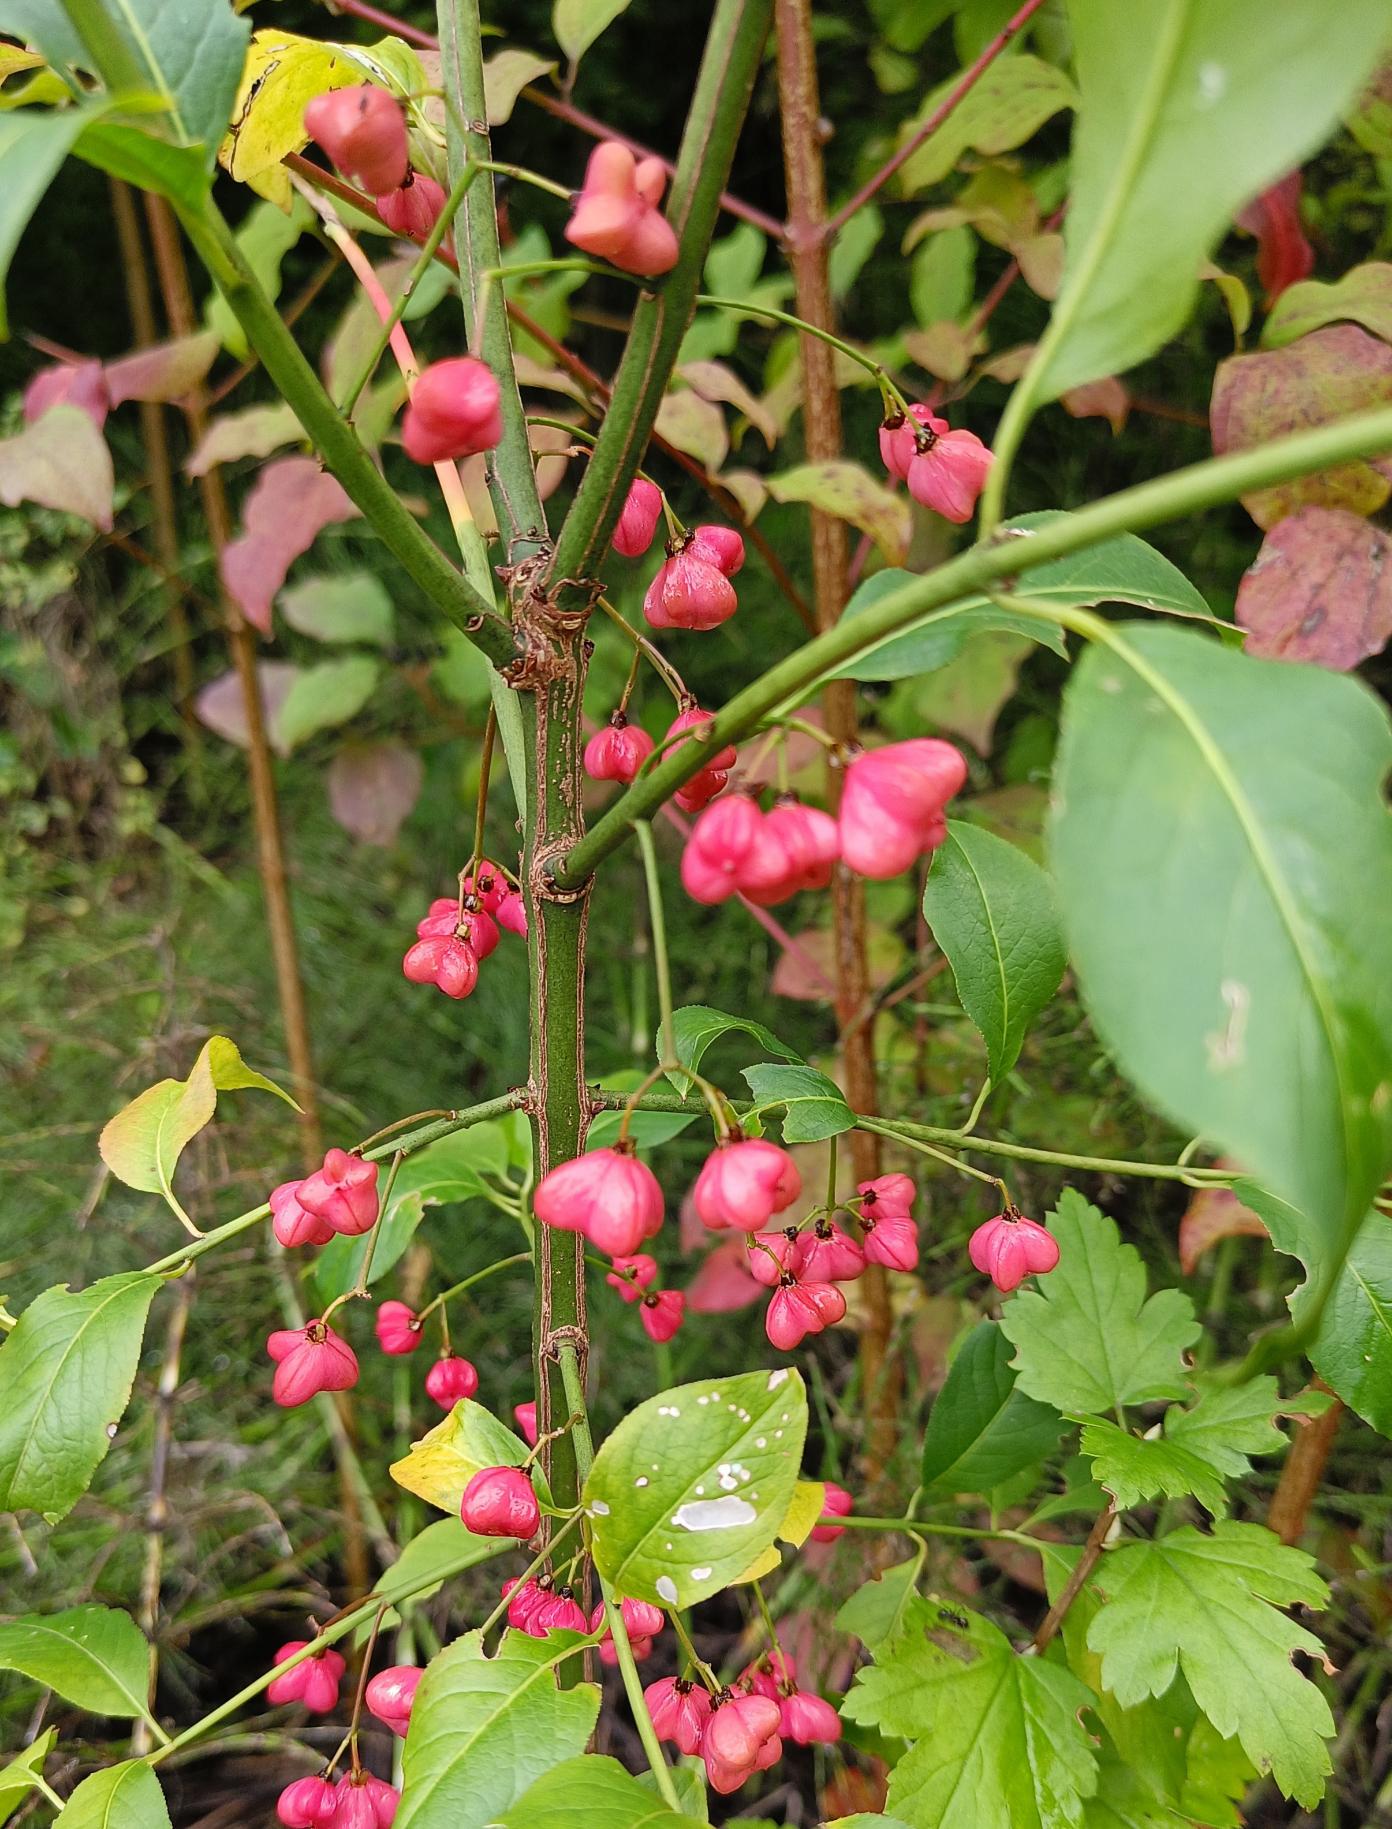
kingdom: Plantae
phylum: Tracheophyta
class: Magnoliopsida
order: Celastrales
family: Celastraceae
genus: Euonymus
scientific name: Euonymus europaeus
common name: Benved
